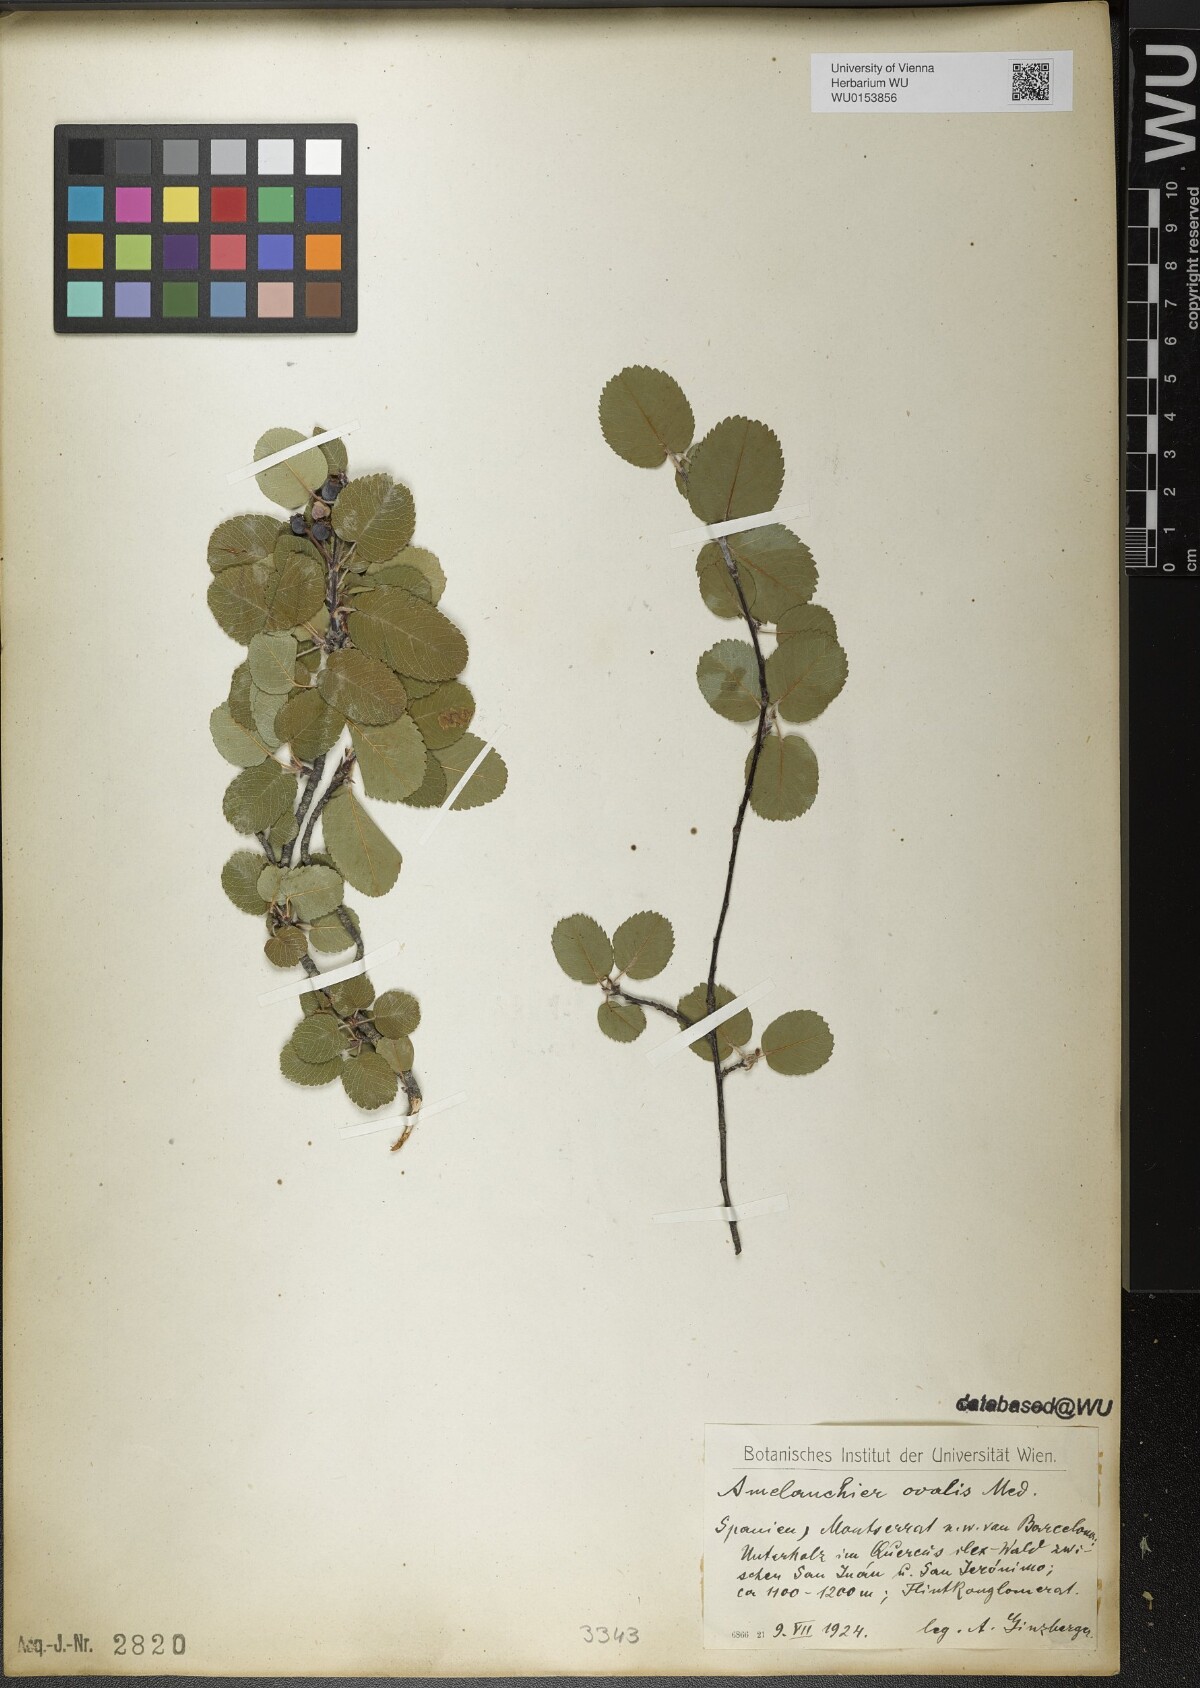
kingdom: Plantae
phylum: Tracheophyta
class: Magnoliopsida
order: Rosales
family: Rosaceae
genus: Amelanchier
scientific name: Amelanchier ovalis
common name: Serviceberry
